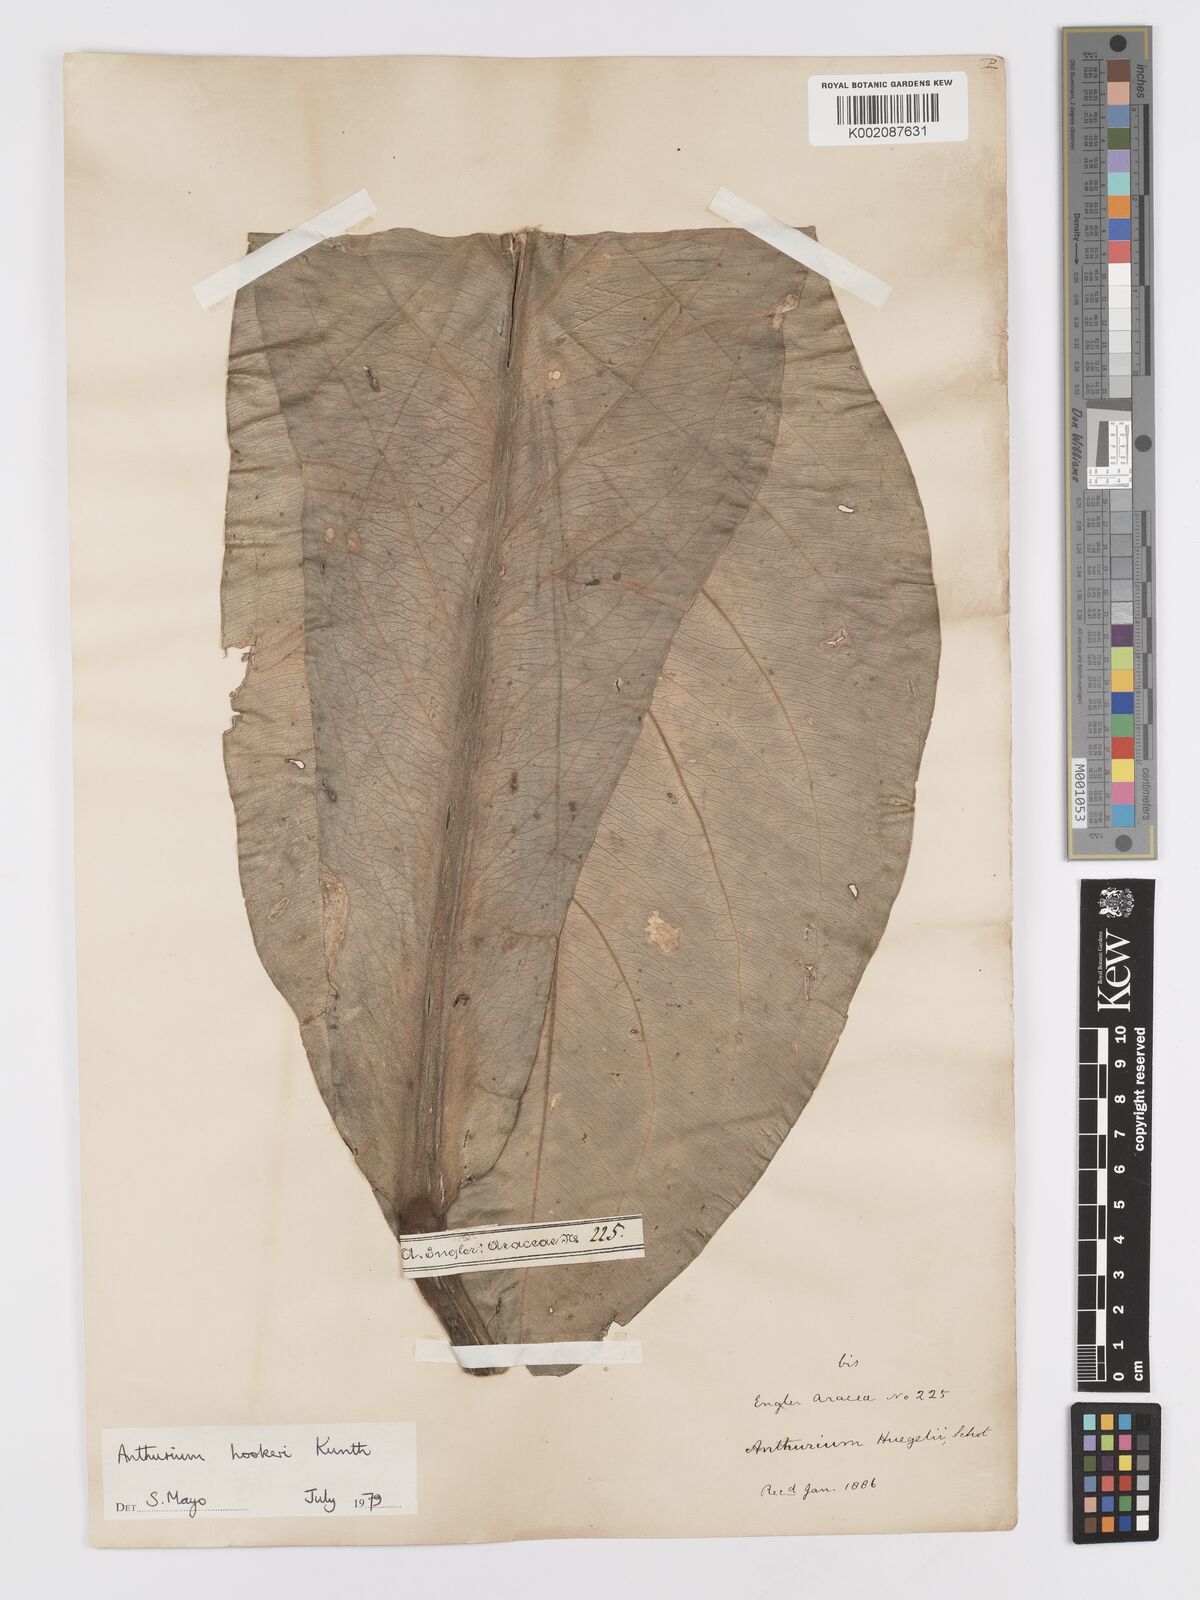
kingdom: Plantae
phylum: Tracheophyta
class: Liliopsida
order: Alismatales
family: Araceae
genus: Anthurium
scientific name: Anthurium hookeri
